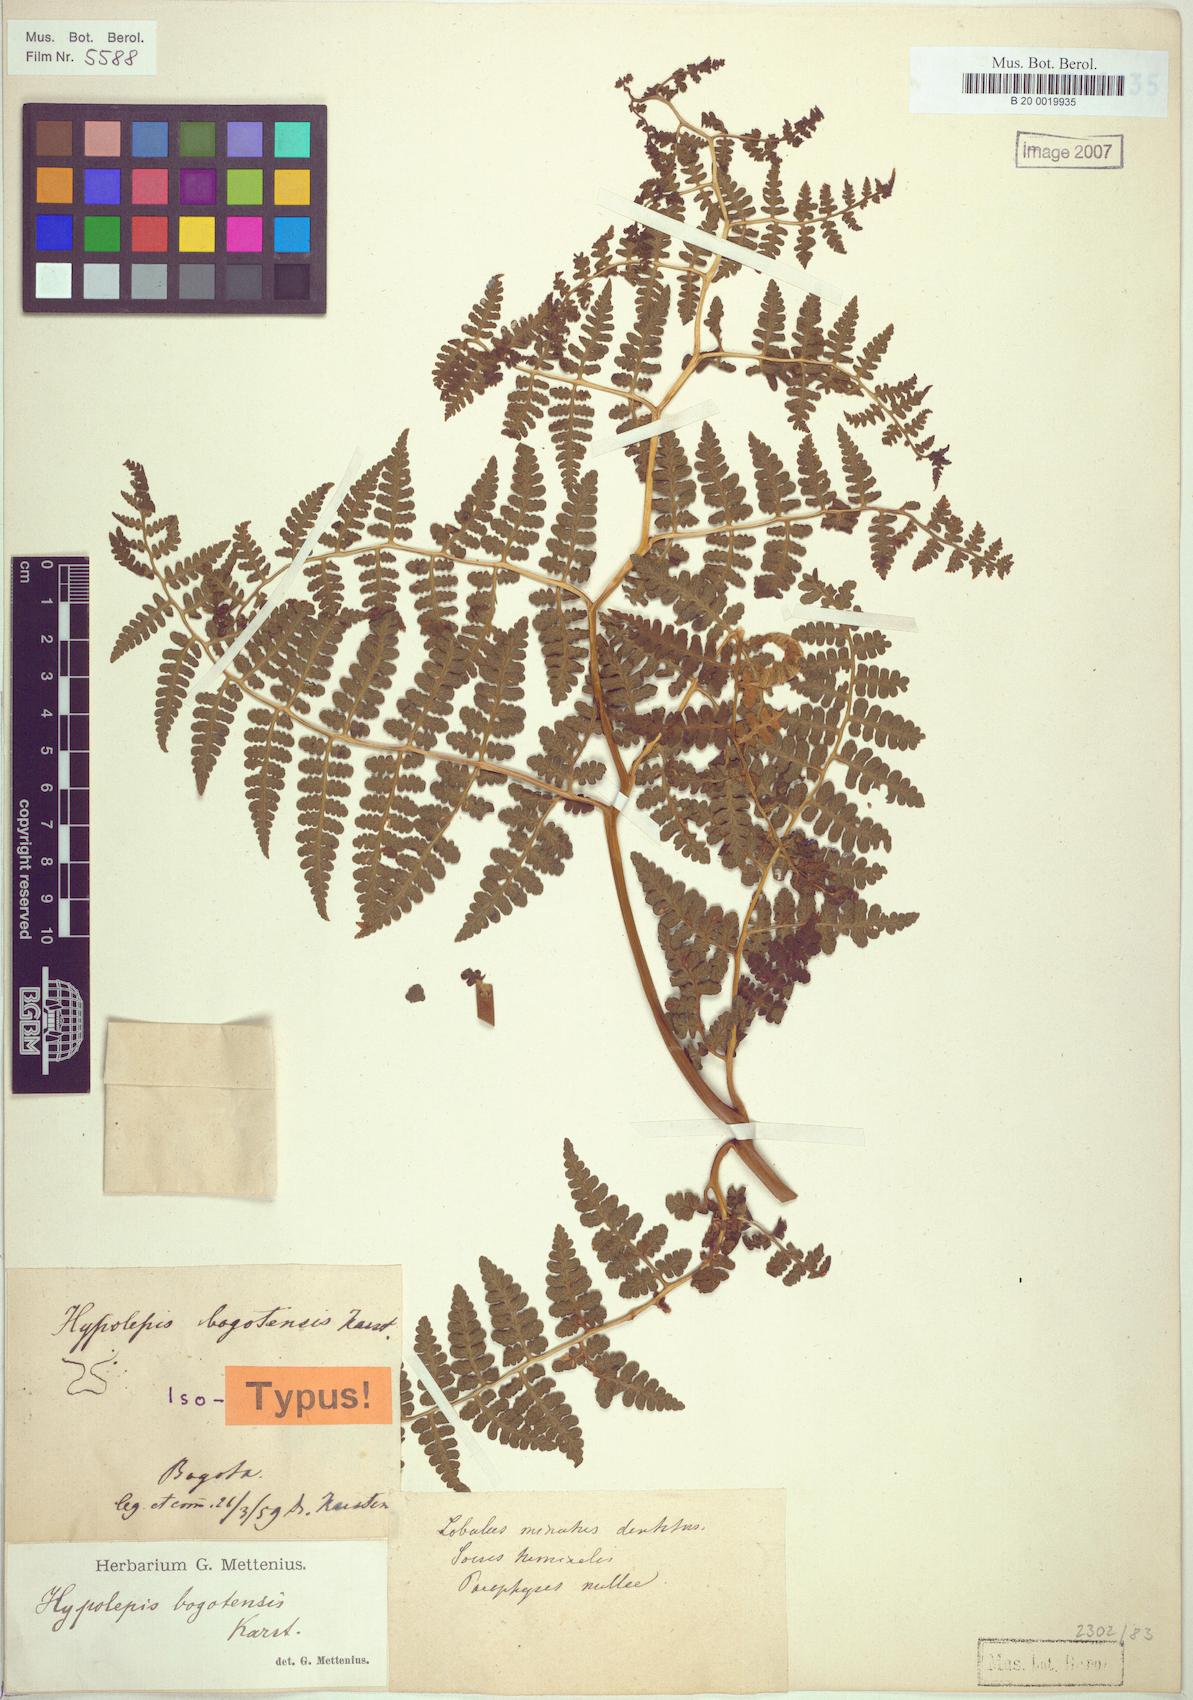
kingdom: Plantae
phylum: Tracheophyta
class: Polypodiopsida
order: Polypodiales
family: Dennstaedtiaceae
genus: Hypolepis
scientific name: Hypolepis bogotensis
